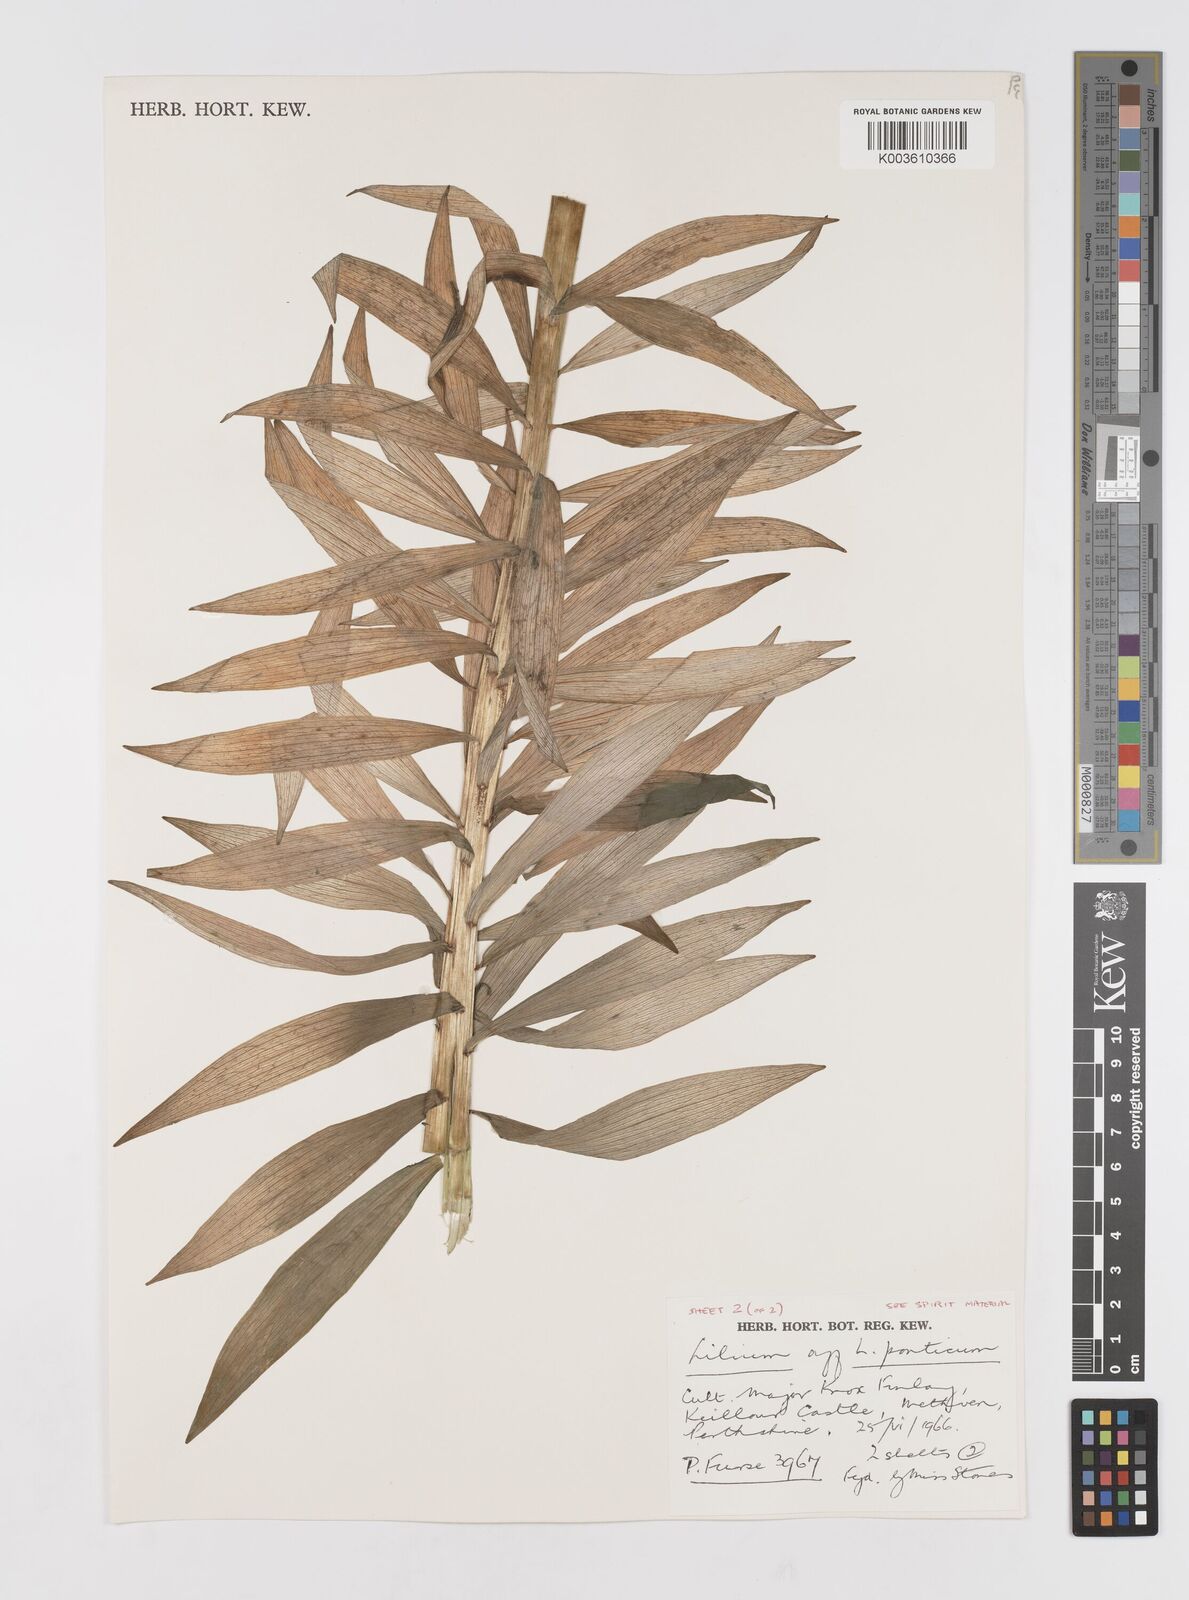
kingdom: Plantae
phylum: Tracheophyta
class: Liliopsida
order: Liliales
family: Liliaceae
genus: Lilium
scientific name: Lilium ponticum
